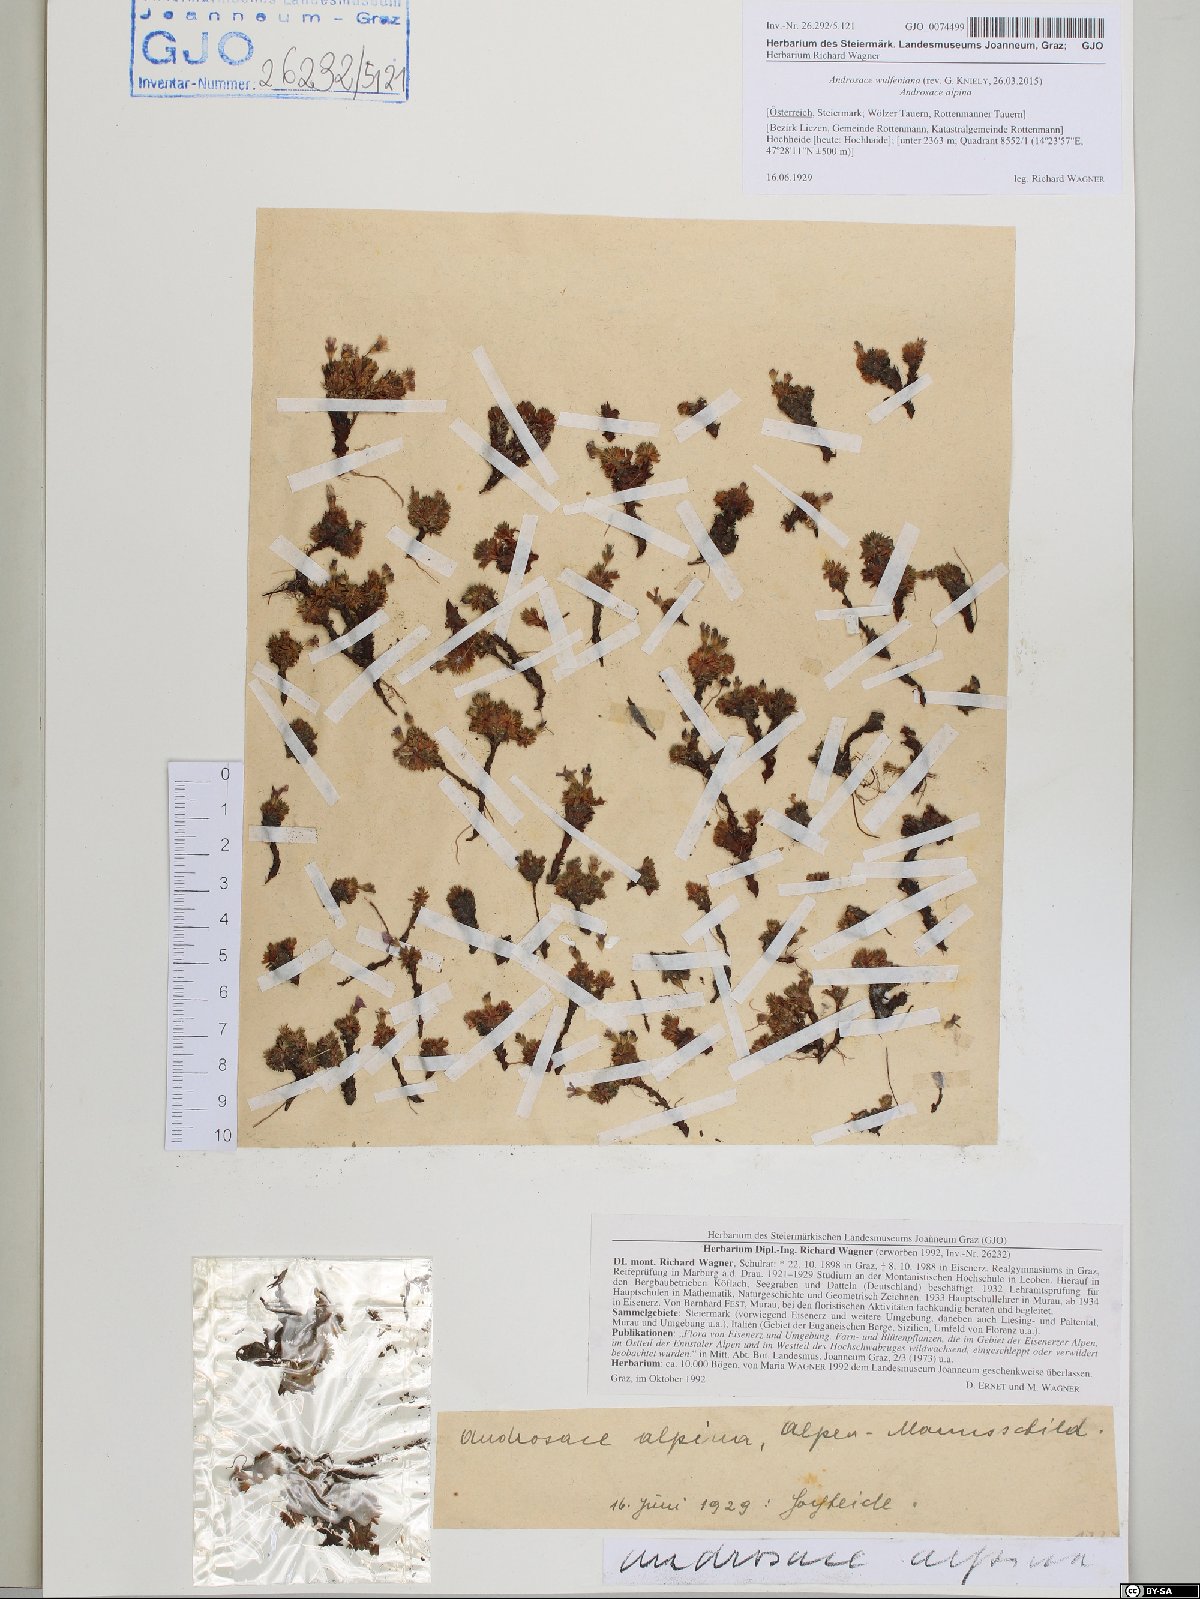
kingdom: Plantae
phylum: Tracheophyta
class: Magnoliopsida
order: Ericales
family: Primulaceae
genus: Androsace
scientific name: Androsace wulfeniana
